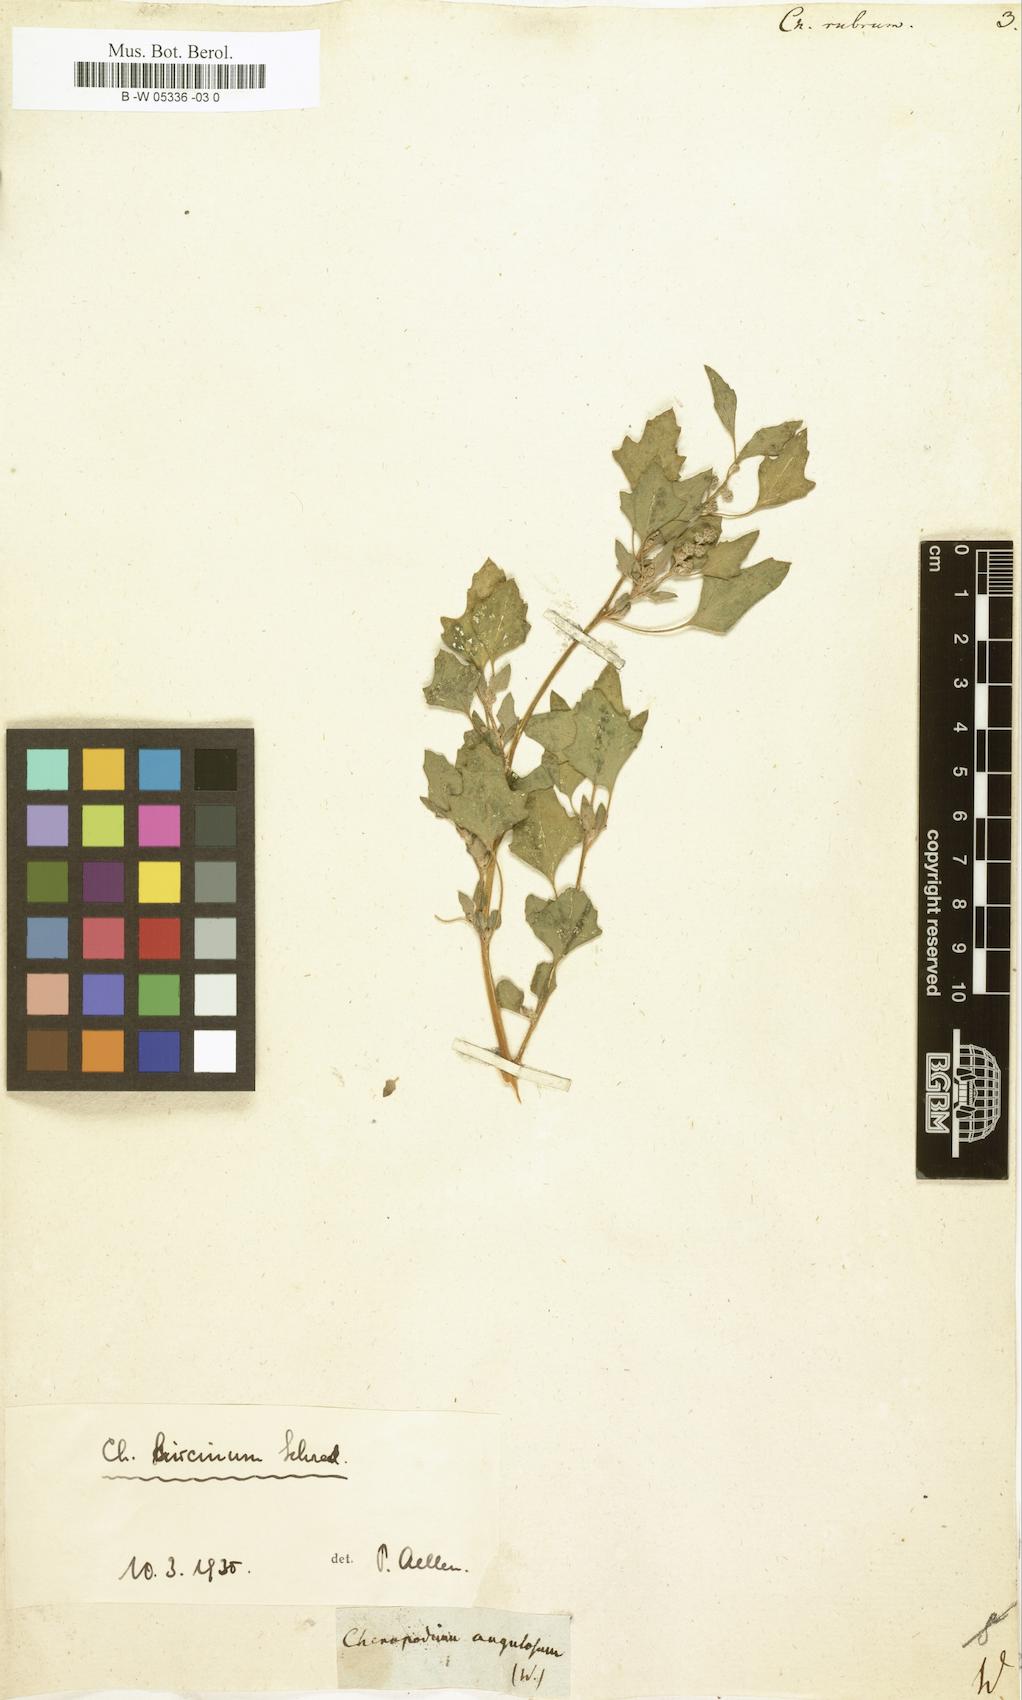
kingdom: Plantae
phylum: Tracheophyta
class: Magnoliopsida
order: Caryophyllales
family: Amaranthaceae
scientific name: Amaranthaceae
